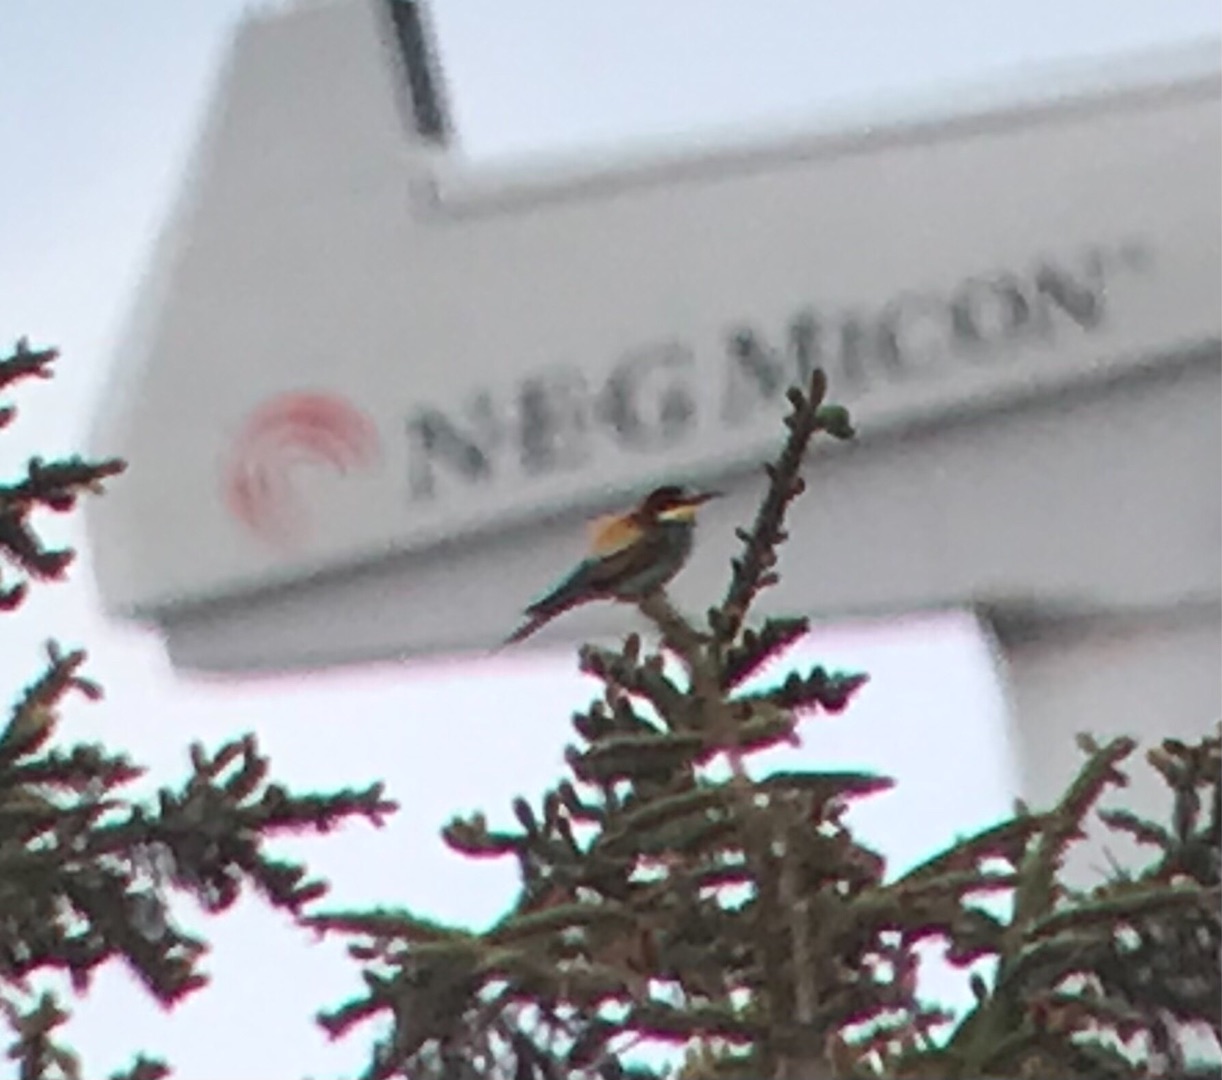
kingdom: Animalia
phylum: Chordata
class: Aves
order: Coraciiformes
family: Meropidae
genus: Merops
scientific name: Merops apiaster
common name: Biæder
